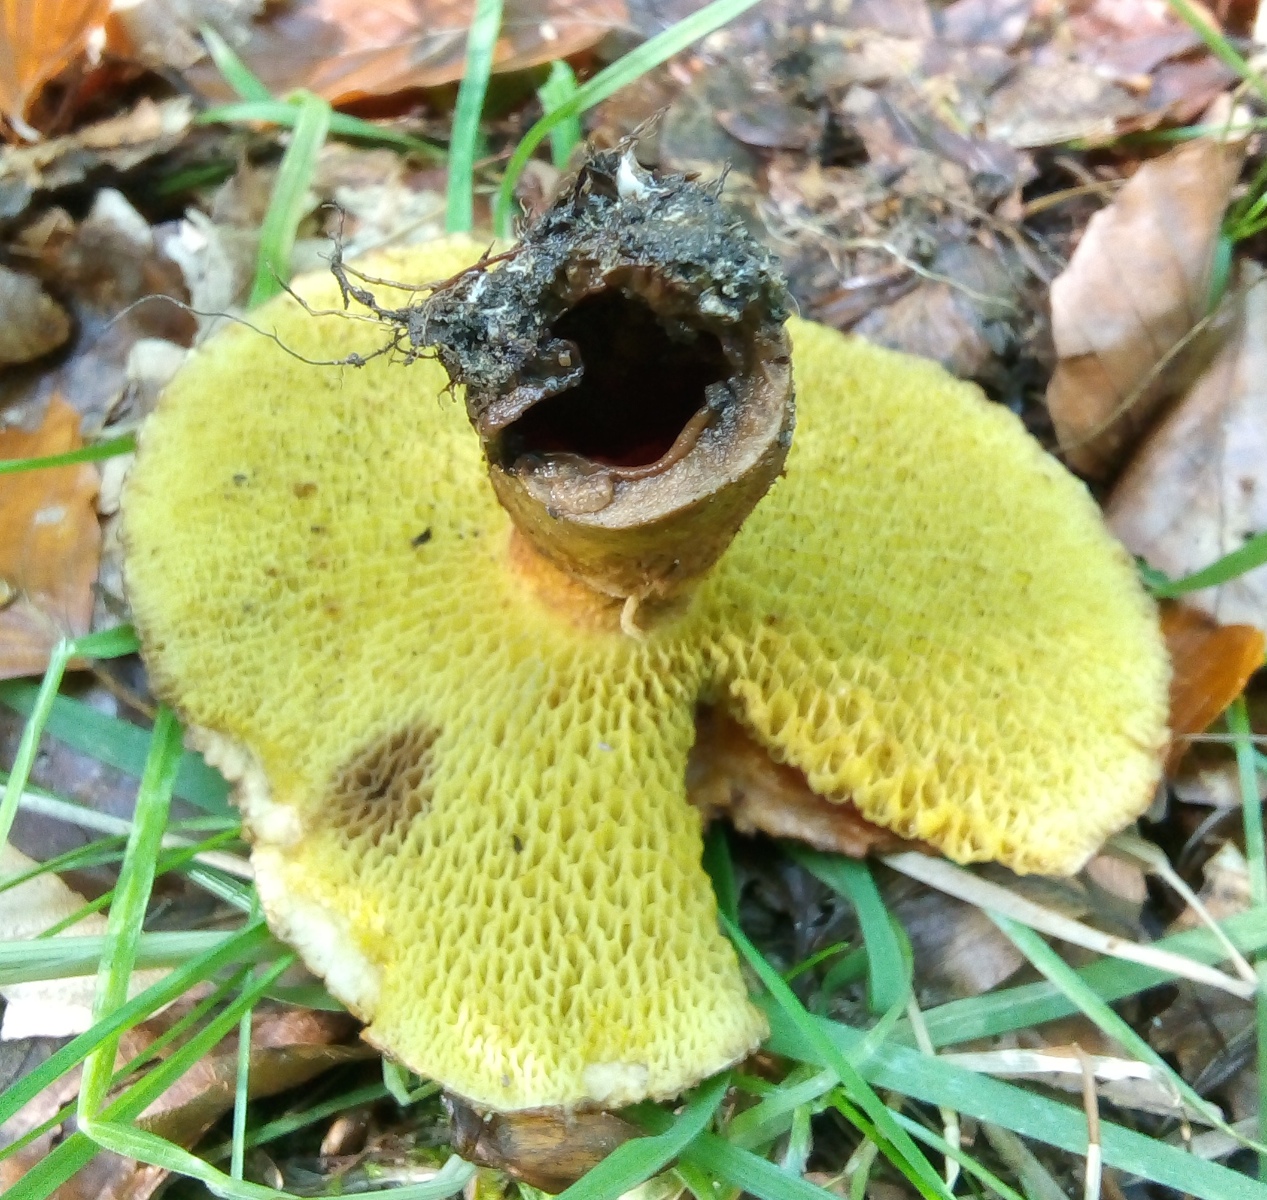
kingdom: Fungi
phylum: Basidiomycota
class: Agaricomycetes
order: Boletales
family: Suillaceae
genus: Suillus
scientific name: Suillus cavipes
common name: hulstokket slimrørhat
